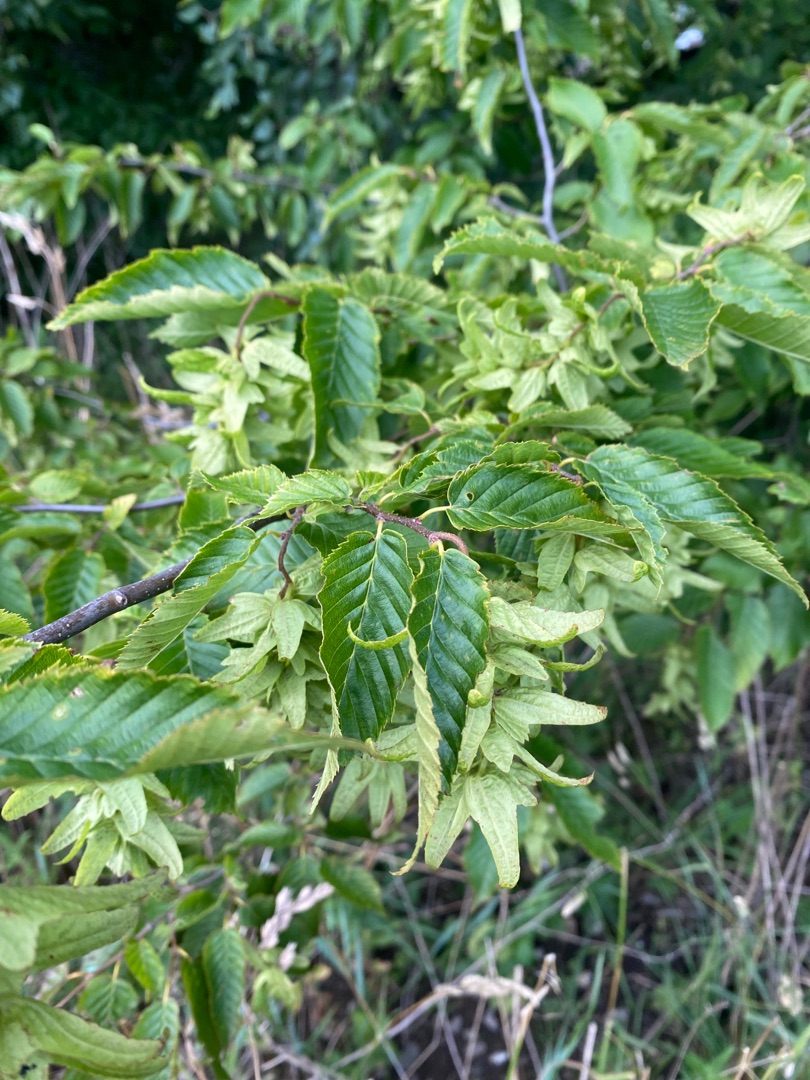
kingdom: Plantae
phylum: Tracheophyta
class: Magnoliopsida
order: Fagales
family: Betulaceae
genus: Carpinus
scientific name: Carpinus betulus
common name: Avnbøg
